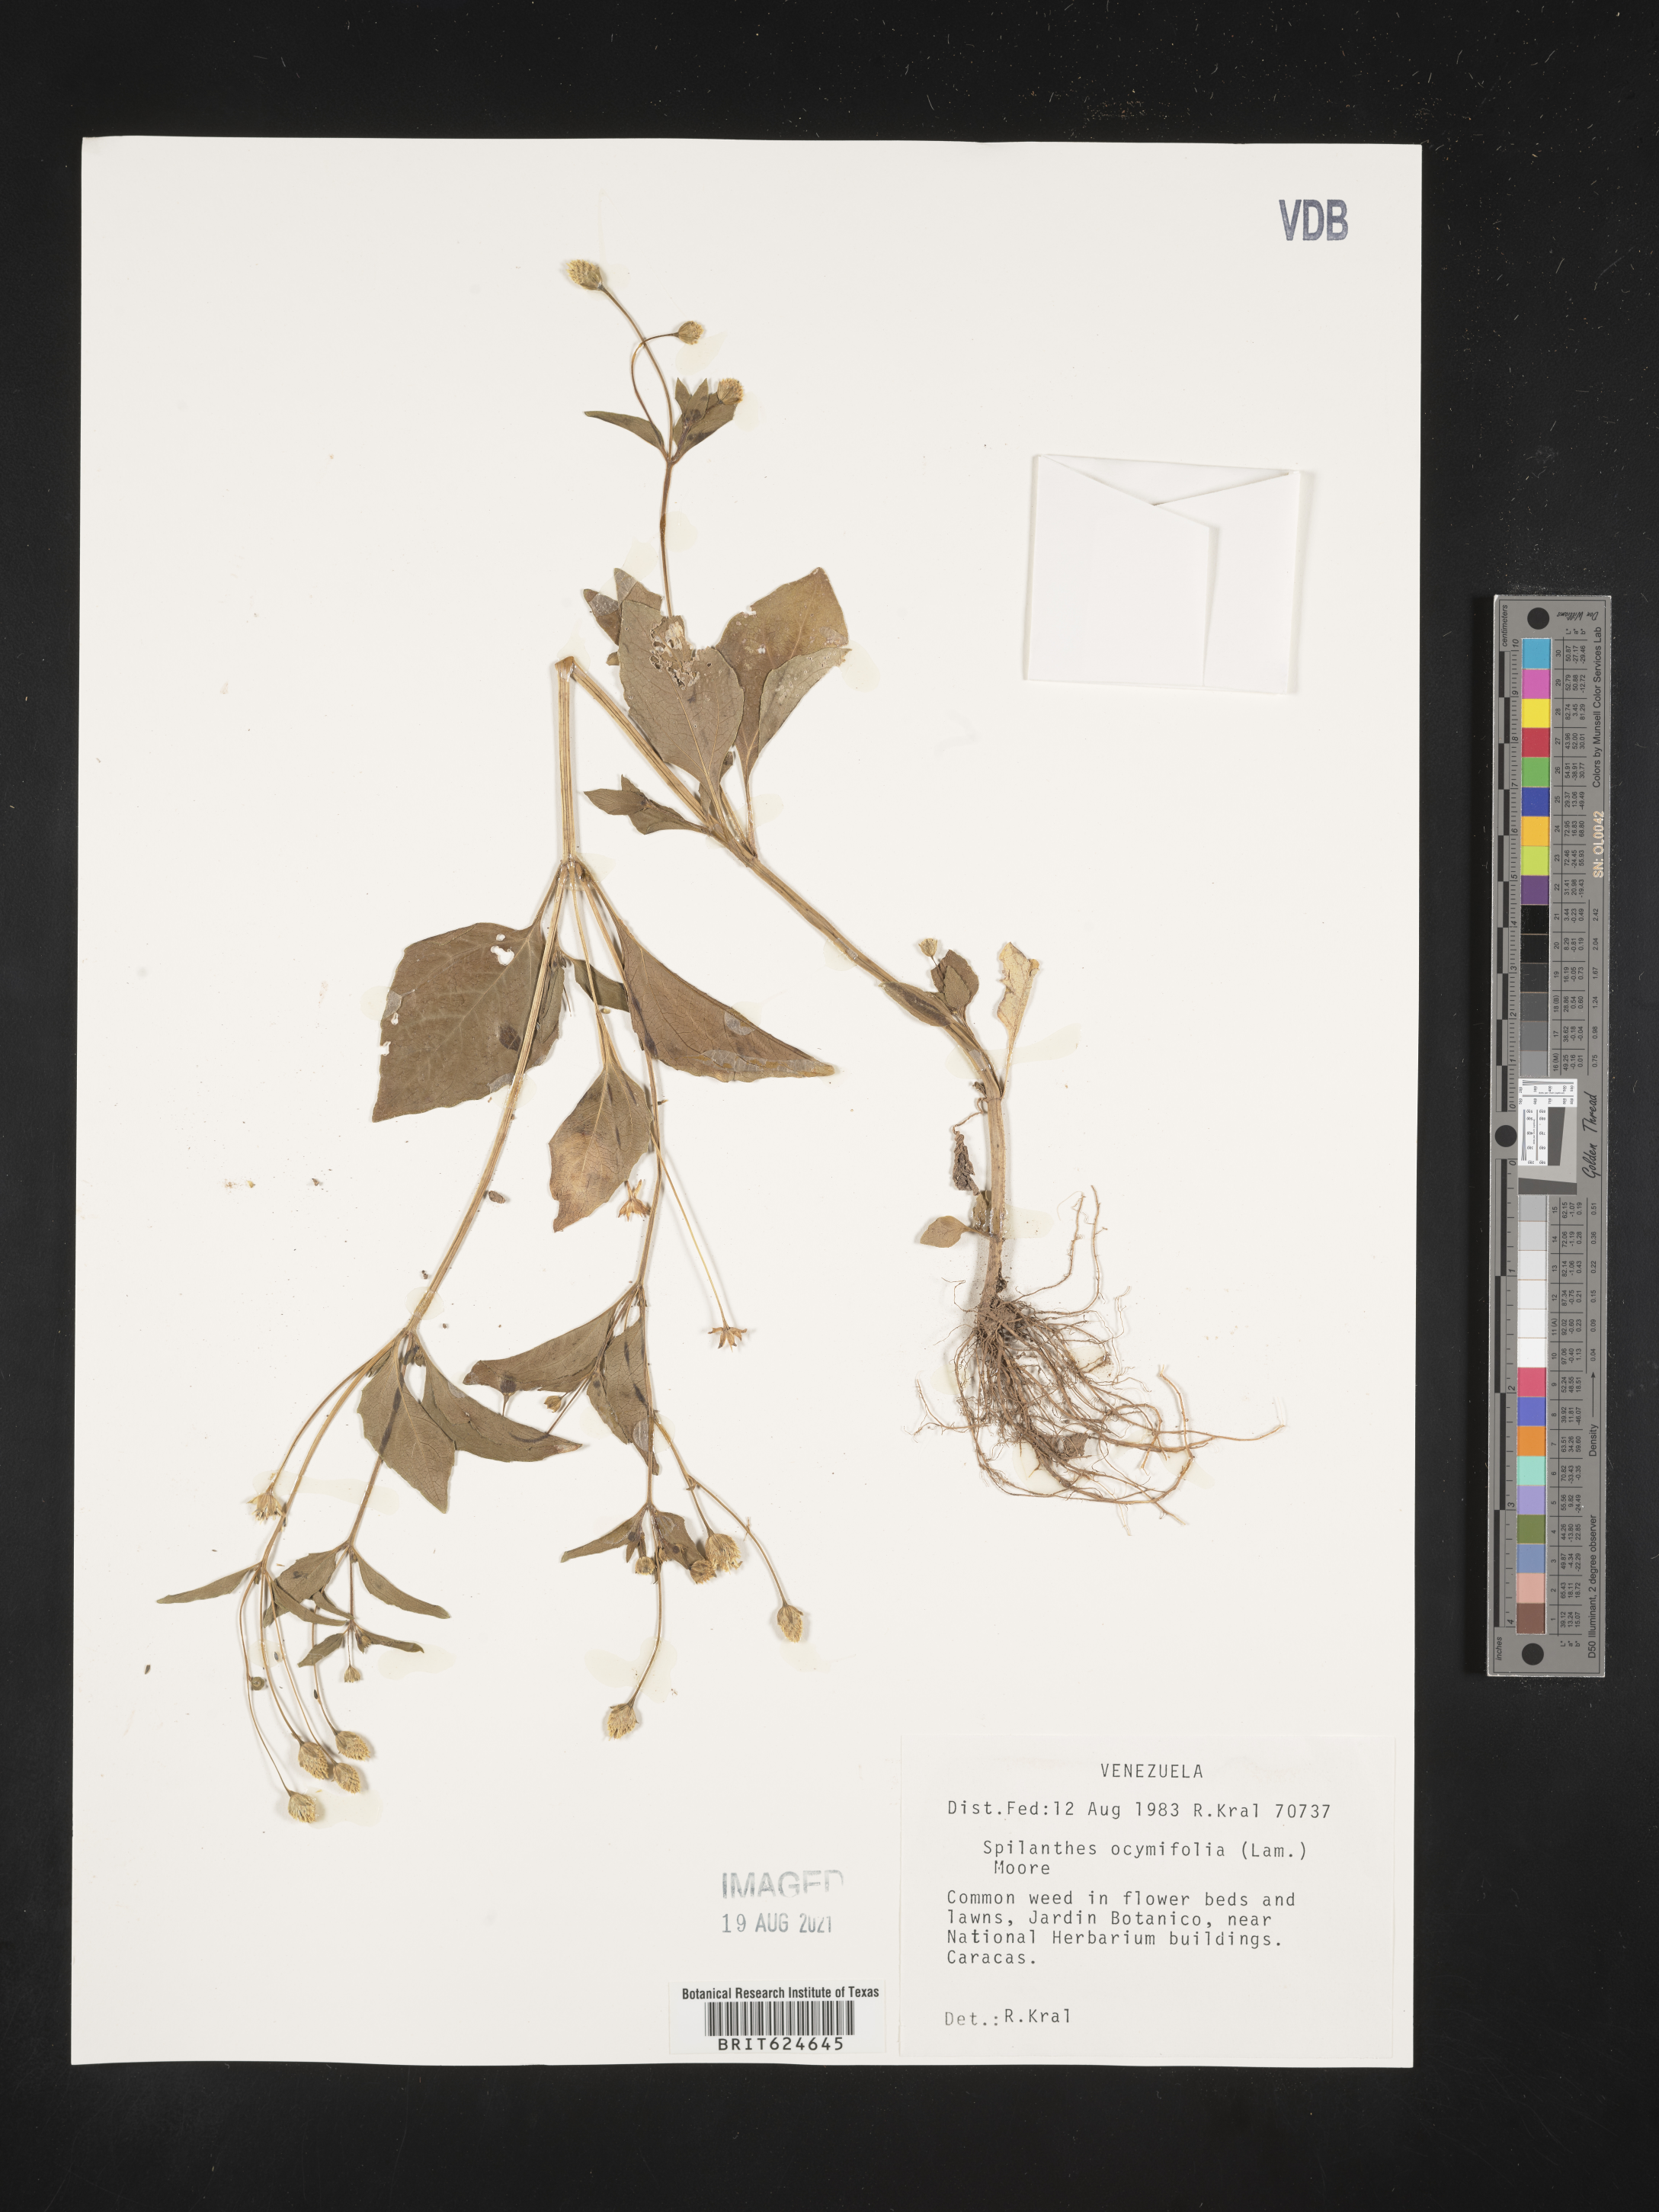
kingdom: Plantae
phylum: Tracheophyta
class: Magnoliopsida
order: Asterales
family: Asteraceae
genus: Acmella
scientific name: Acmella
